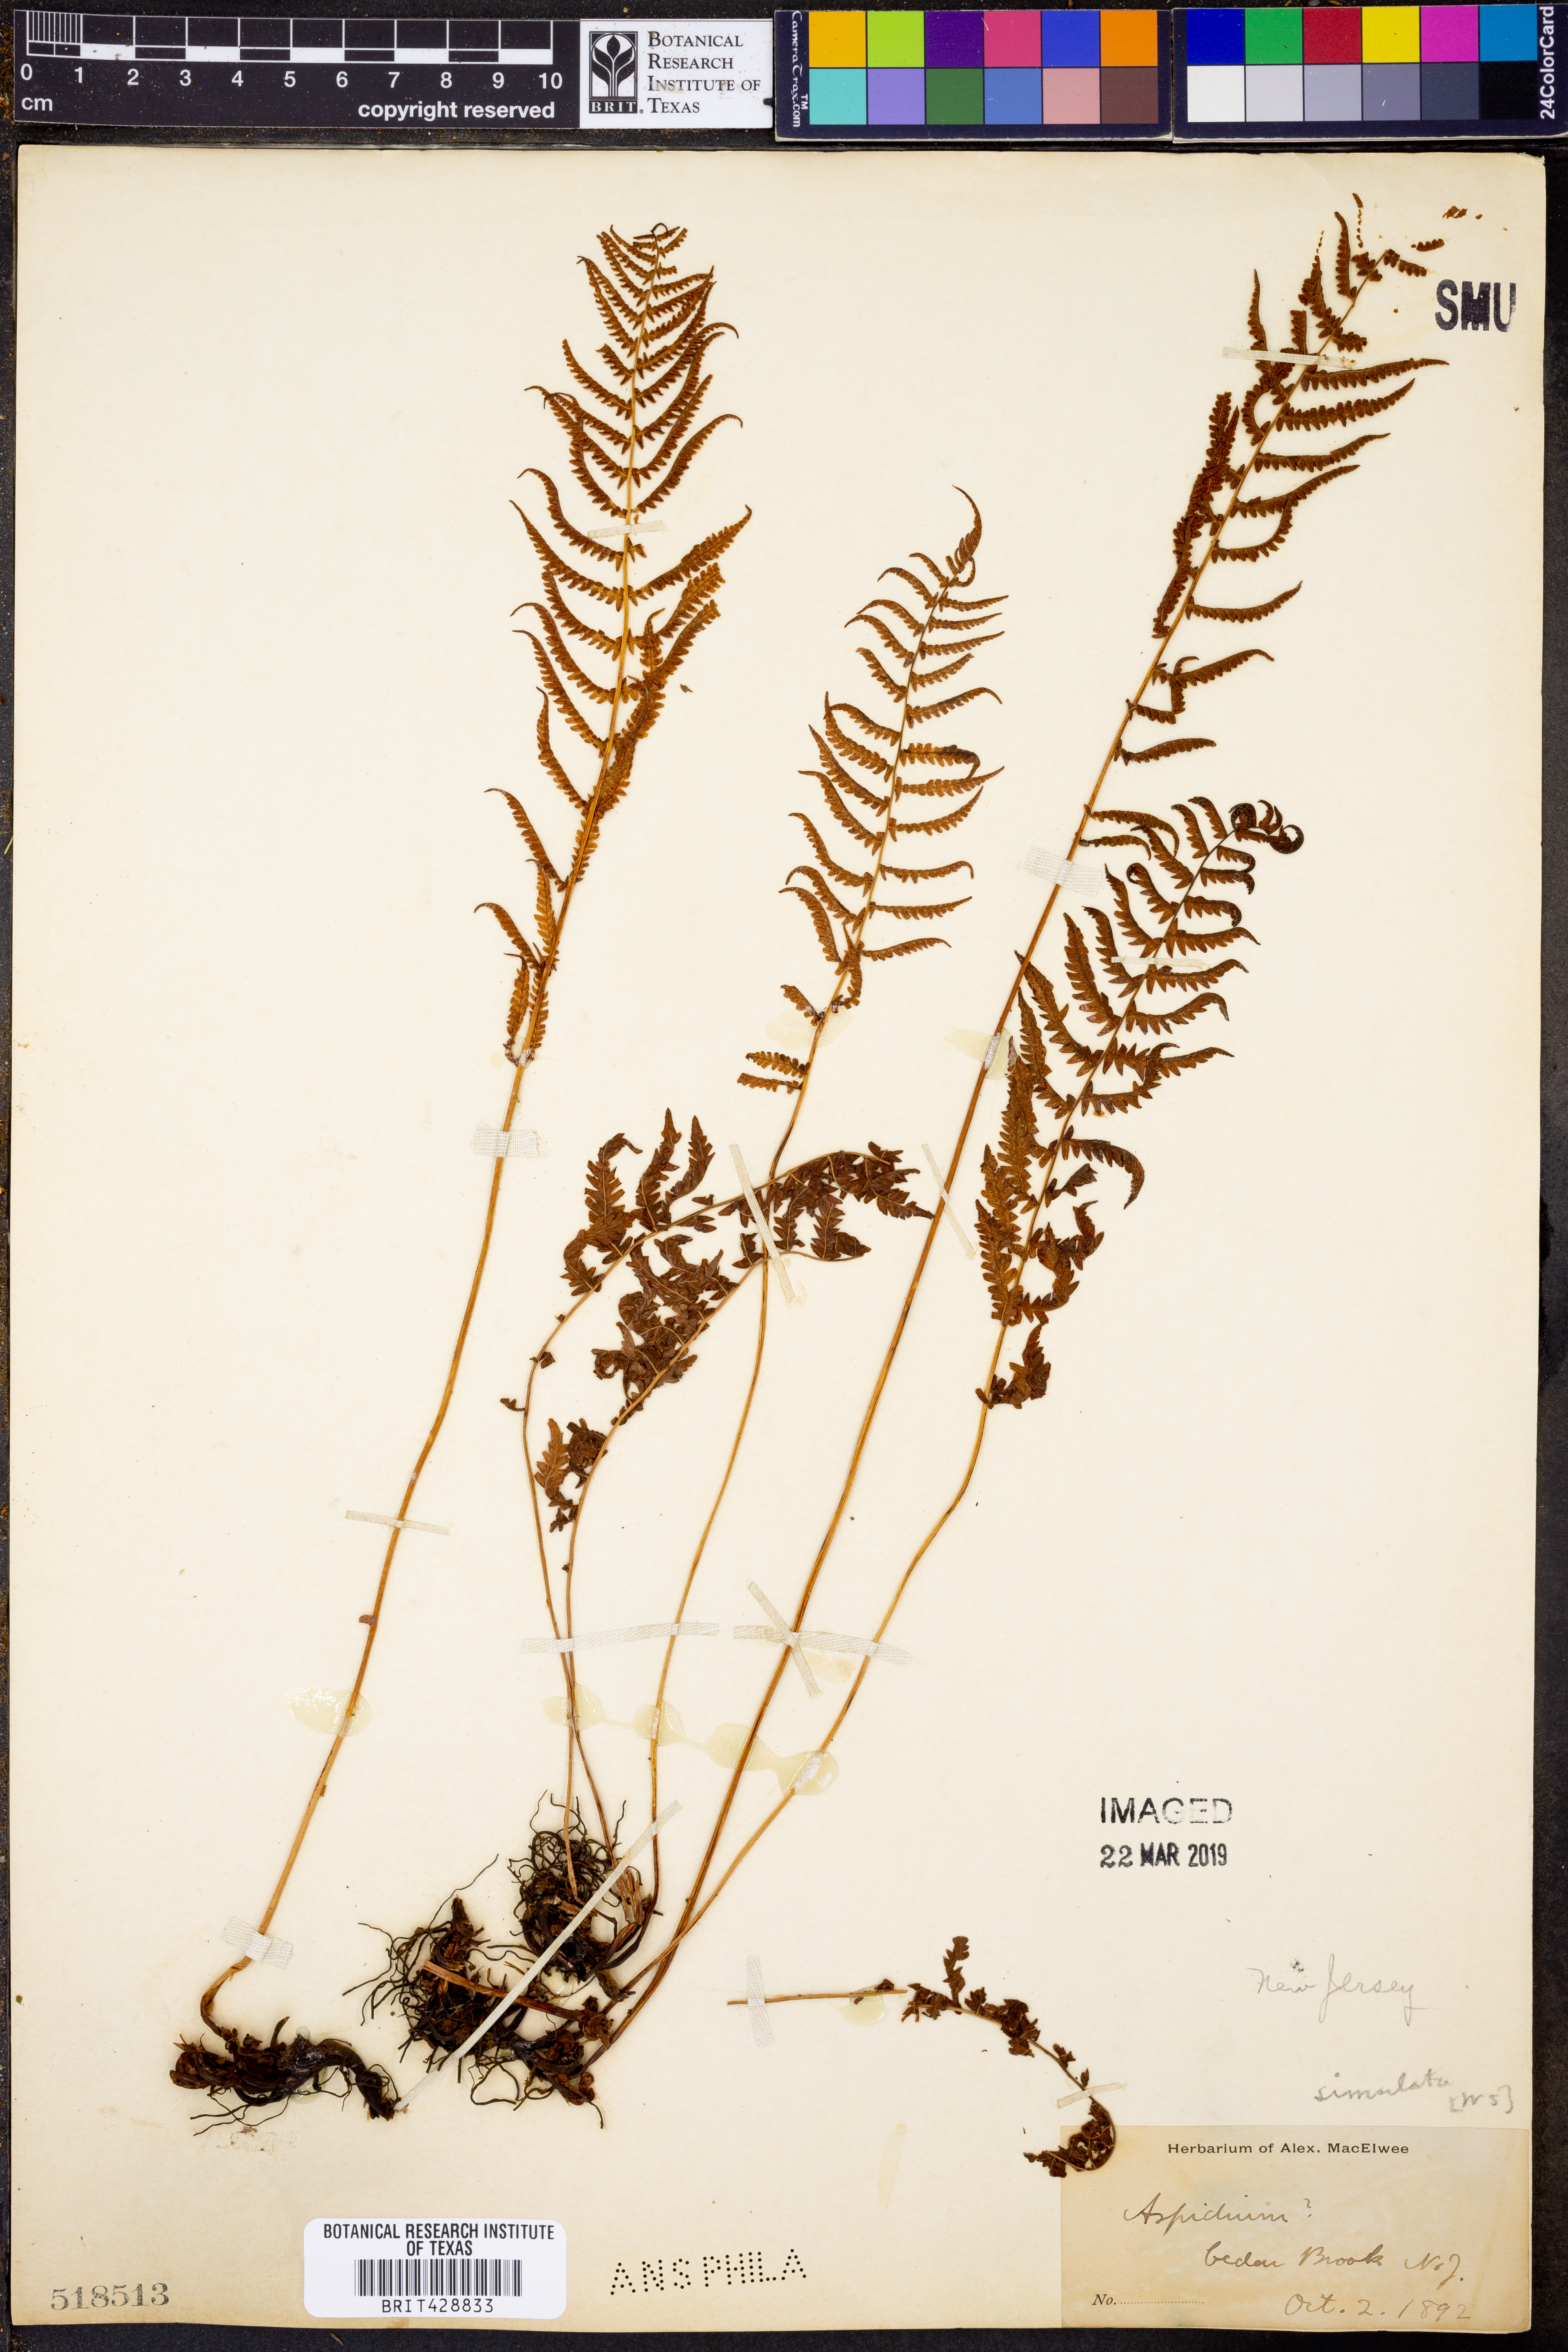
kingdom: Plantae
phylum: Tracheophyta
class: Polypodiopsida
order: Polypodiales
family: Thelypteridaceae
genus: Coryphopteris
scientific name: Coryphopteris simulata
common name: Bog fern
